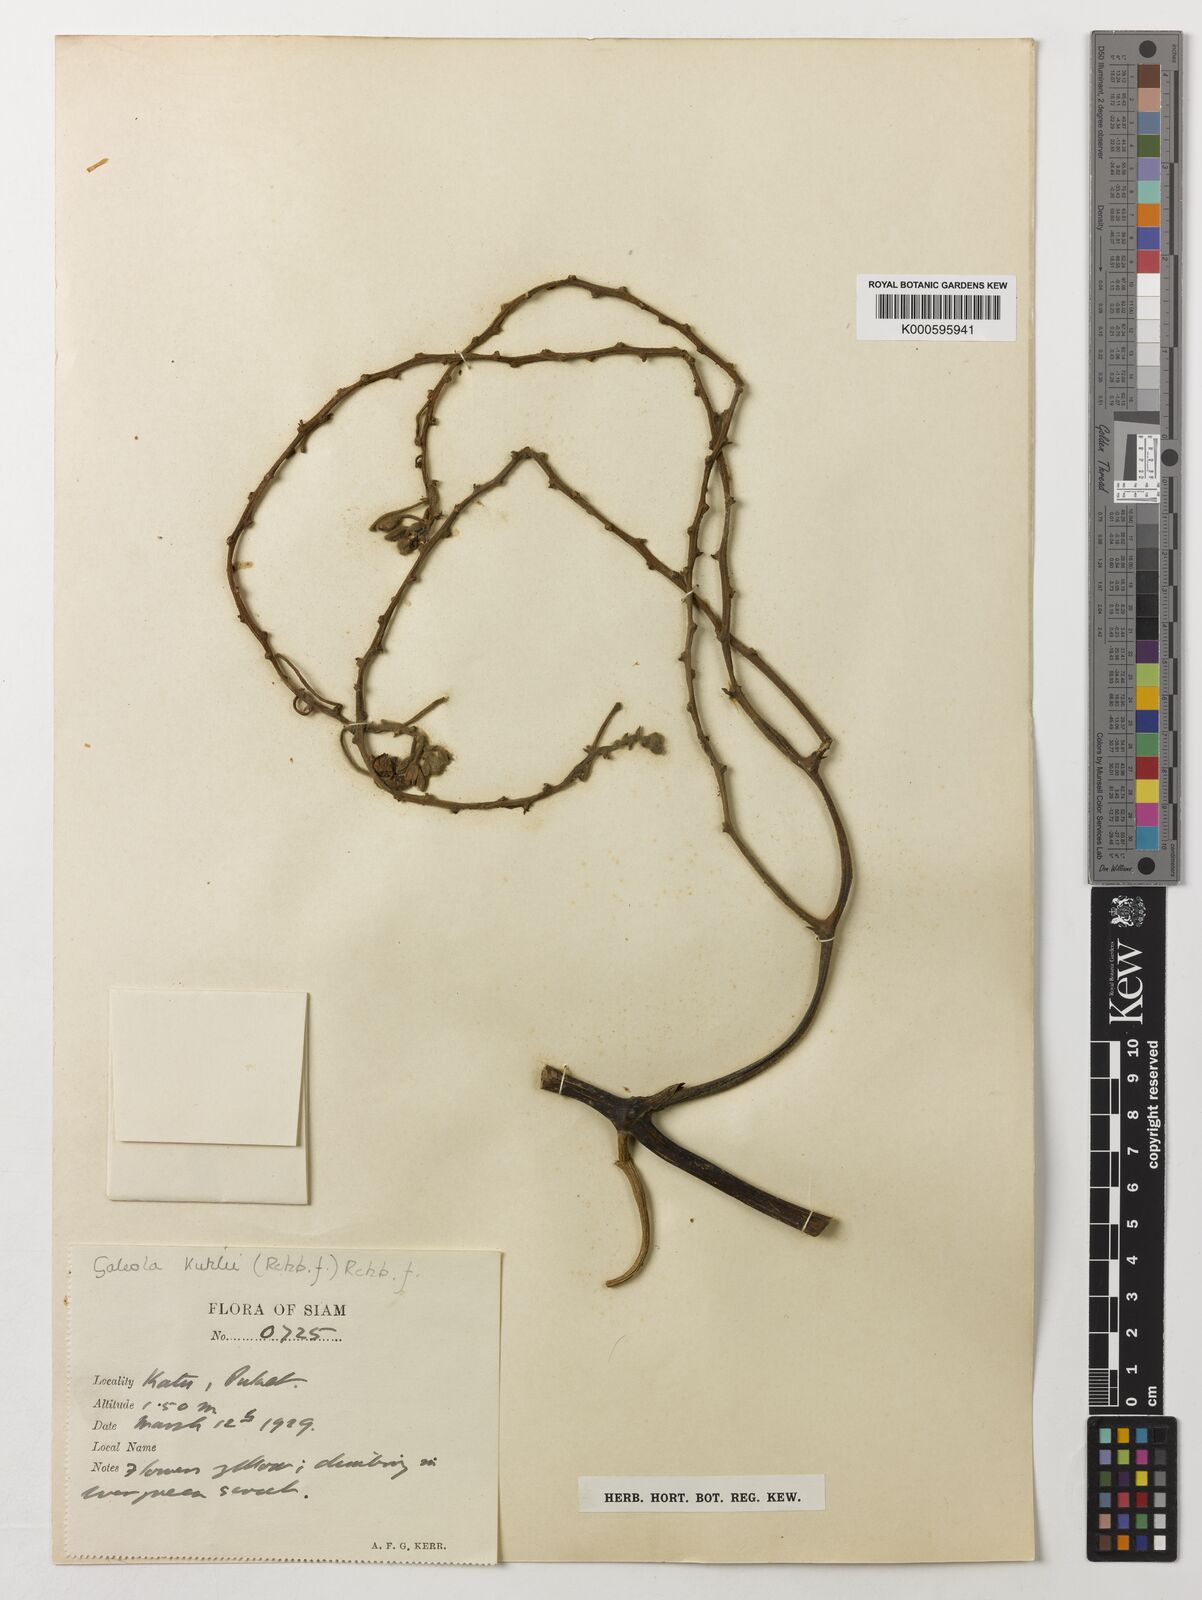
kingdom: Plantae
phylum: Tracheophyta
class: Liliopsida
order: Asparagales
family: Orchidaceae
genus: Galeola
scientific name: Galeola
